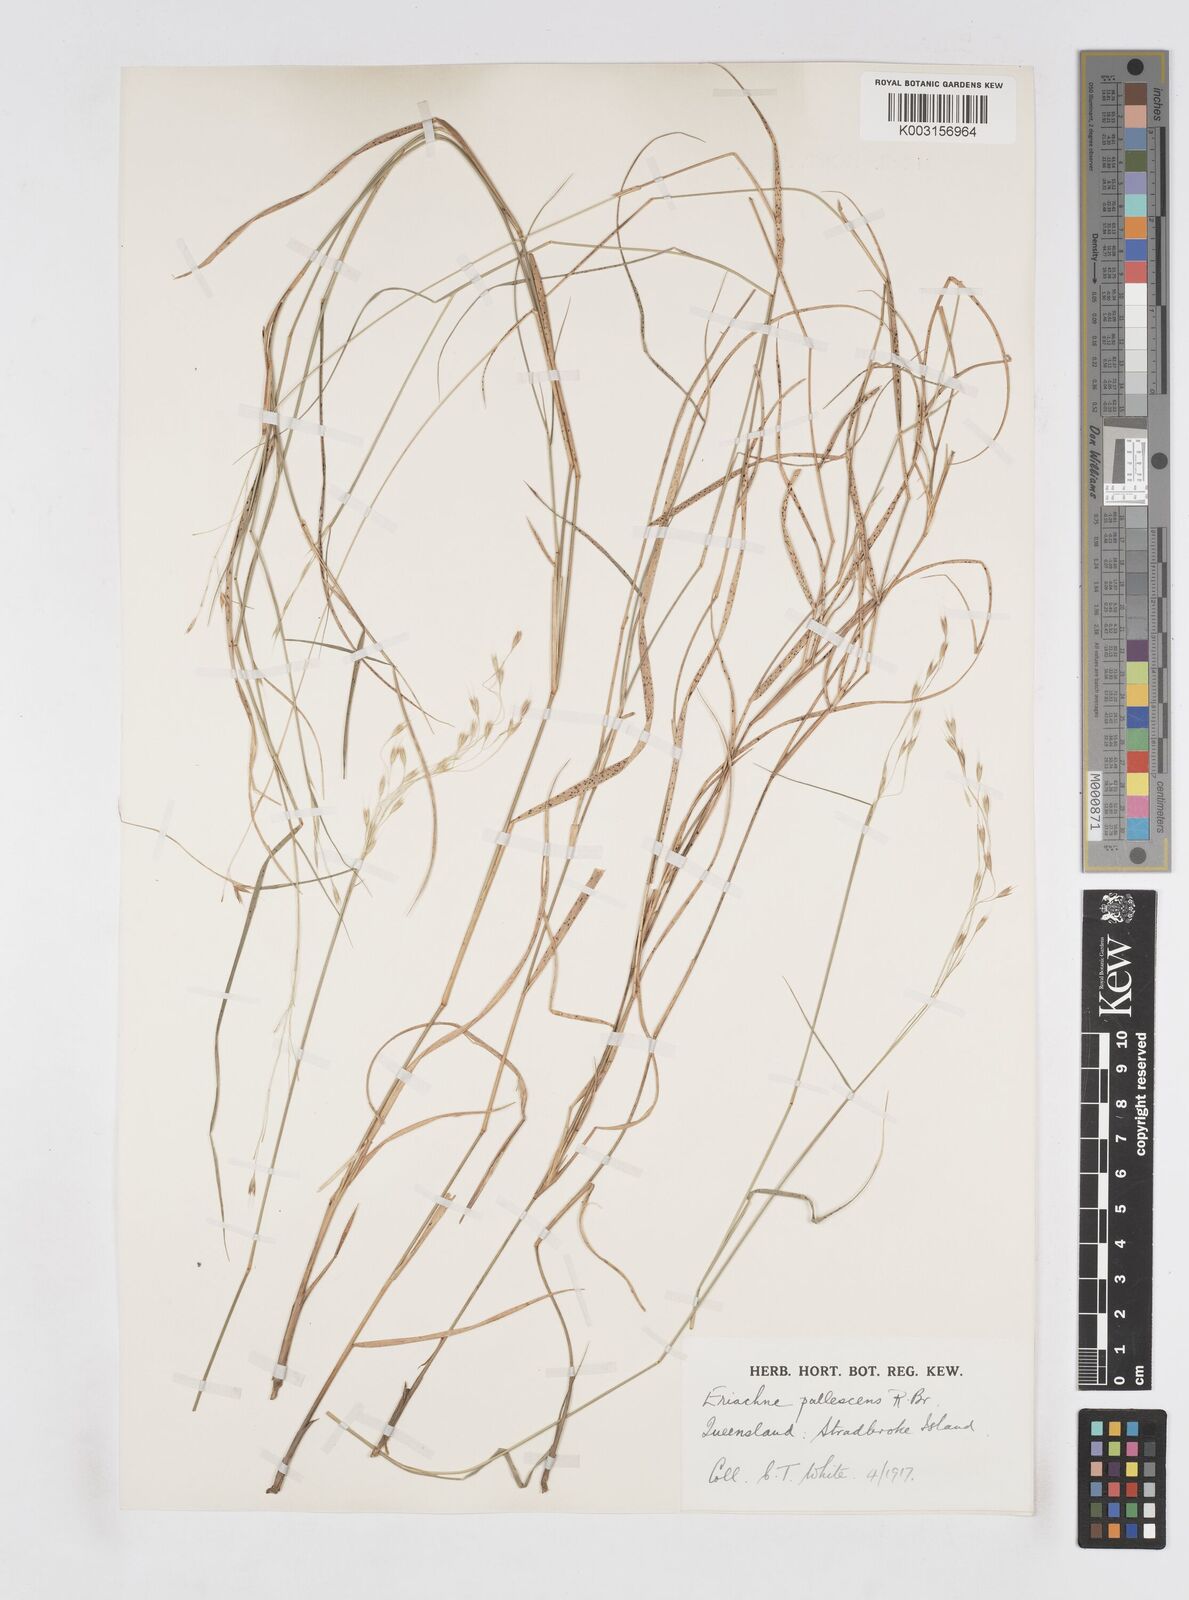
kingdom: Plantae
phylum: Tracheophyta
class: Liliopsida
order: Poales
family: Poaceae
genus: Eriachne
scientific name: Eriachne pallescens
